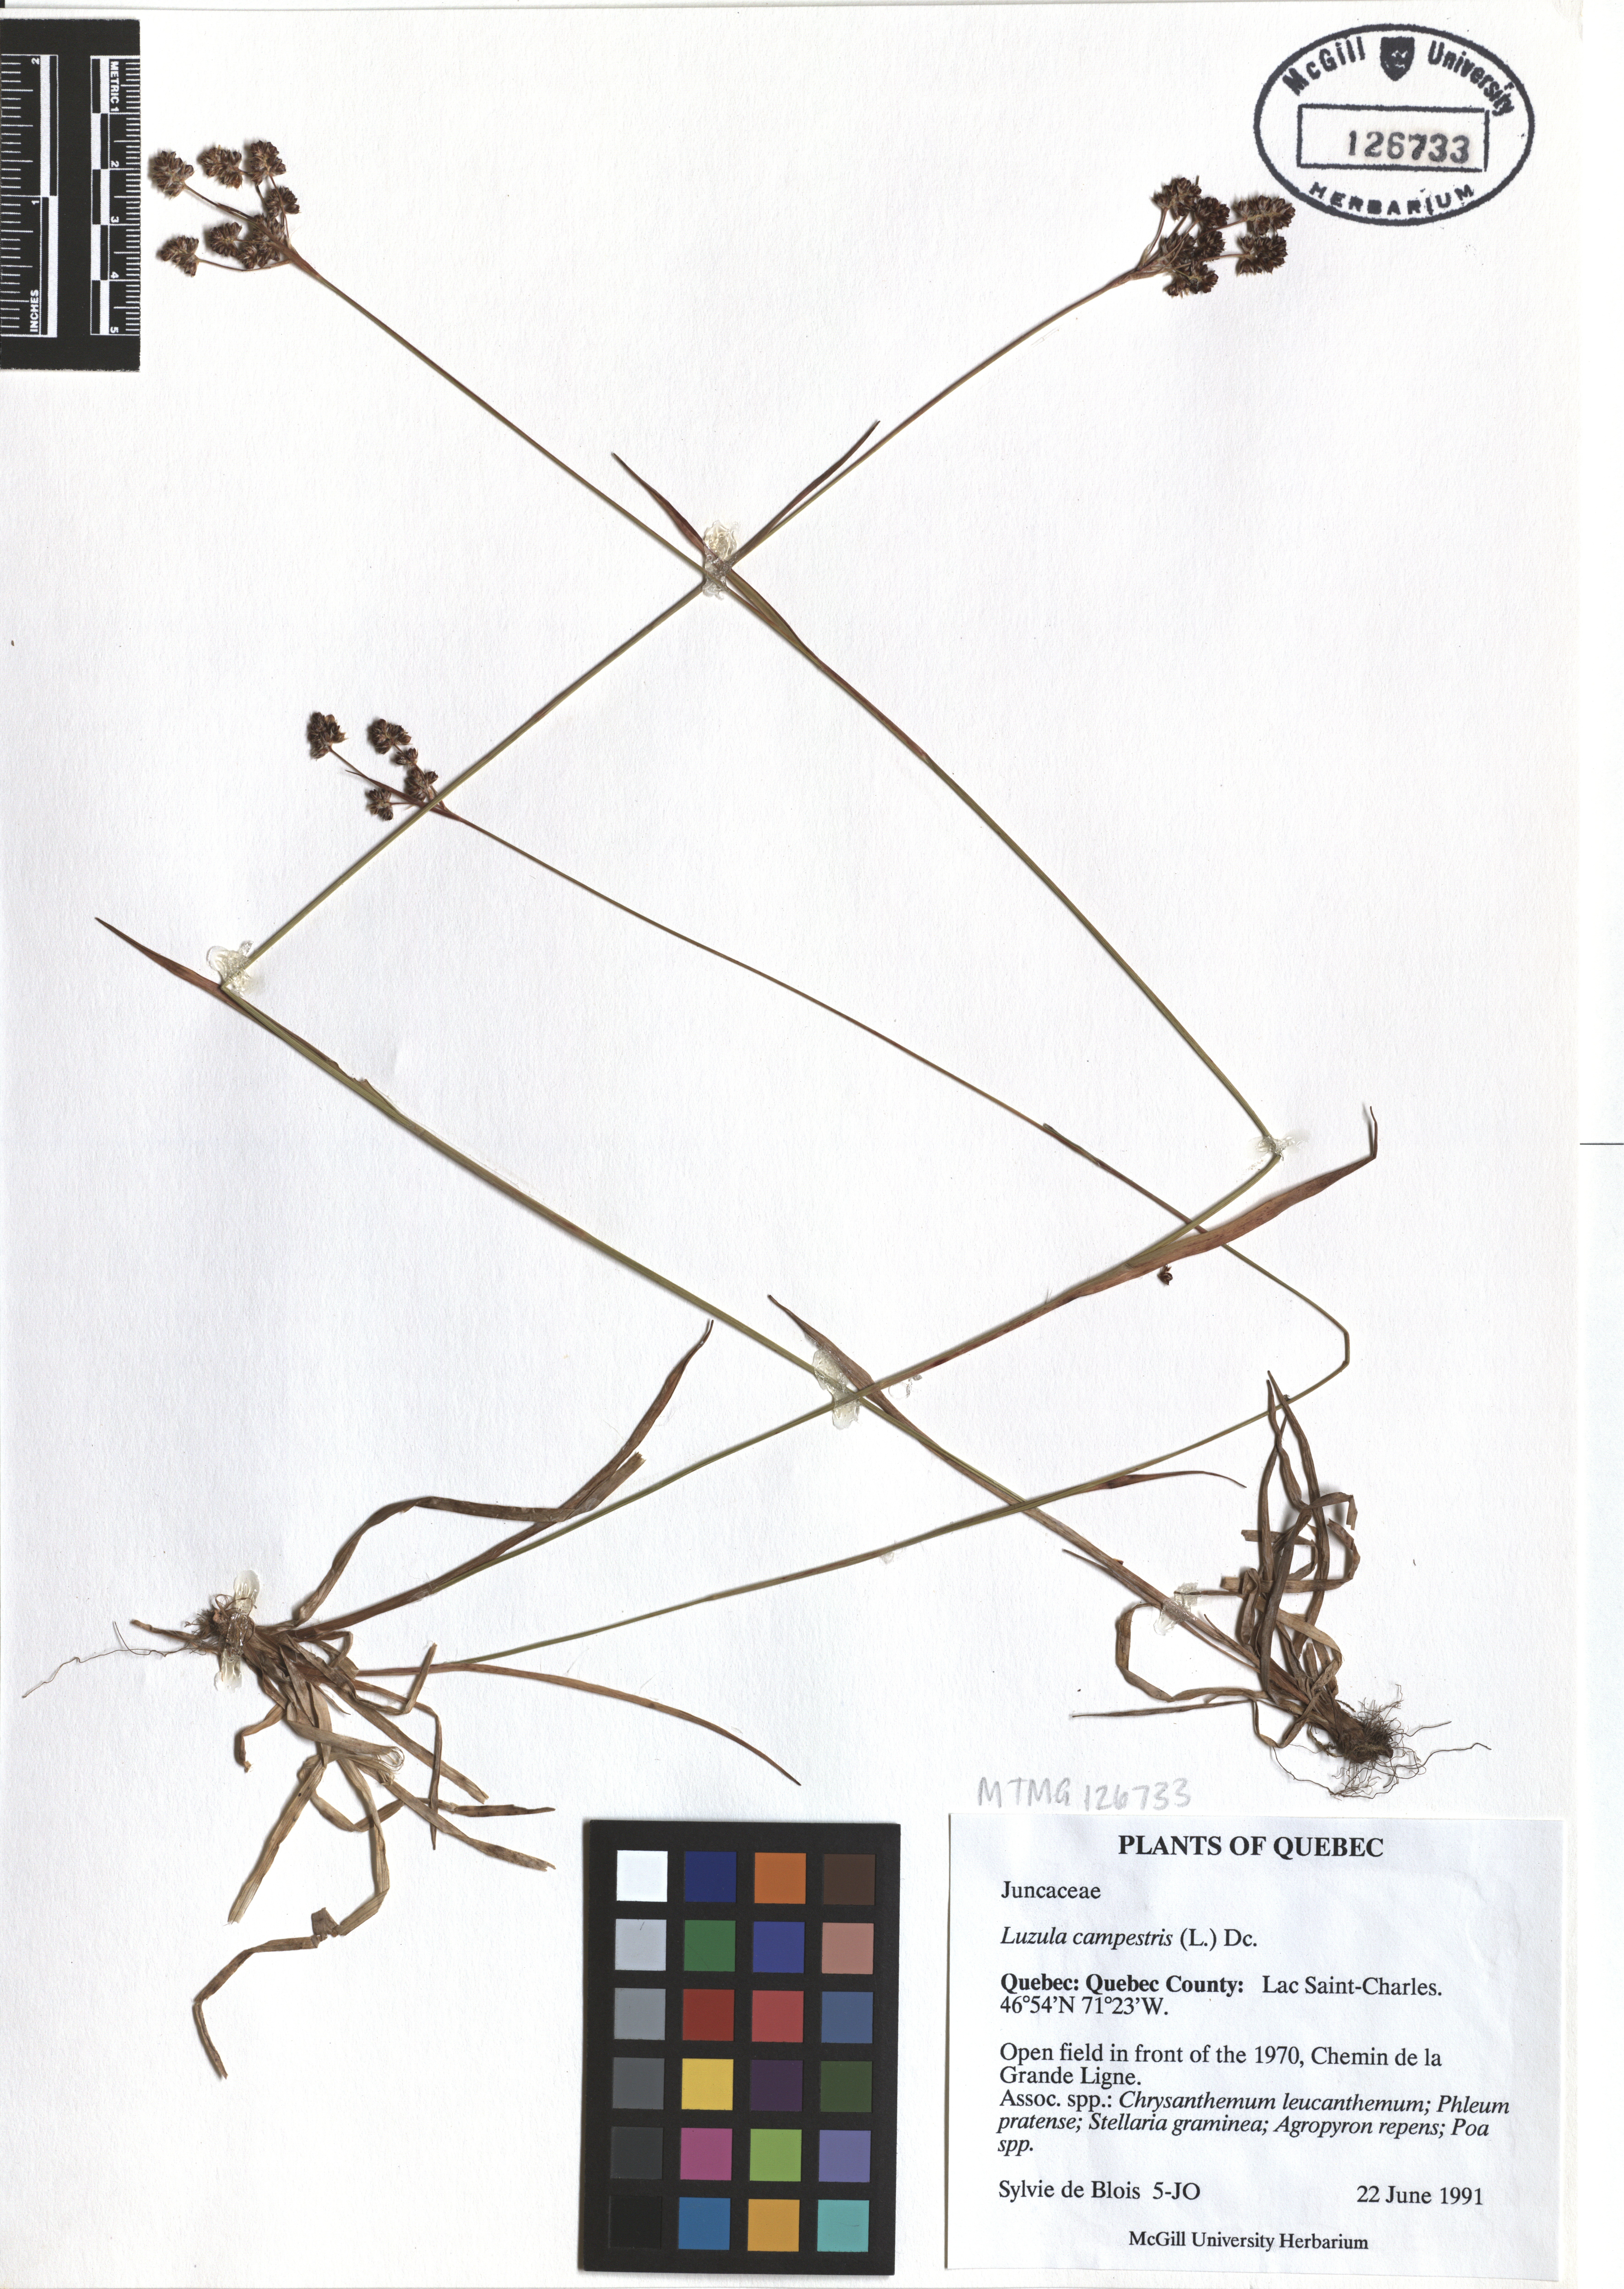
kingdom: Plantae
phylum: Tracheophyta
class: Liliopsida
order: Poales
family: Juncaceae
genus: Luzula
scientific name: Luzula campestris
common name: Field wood-rush
